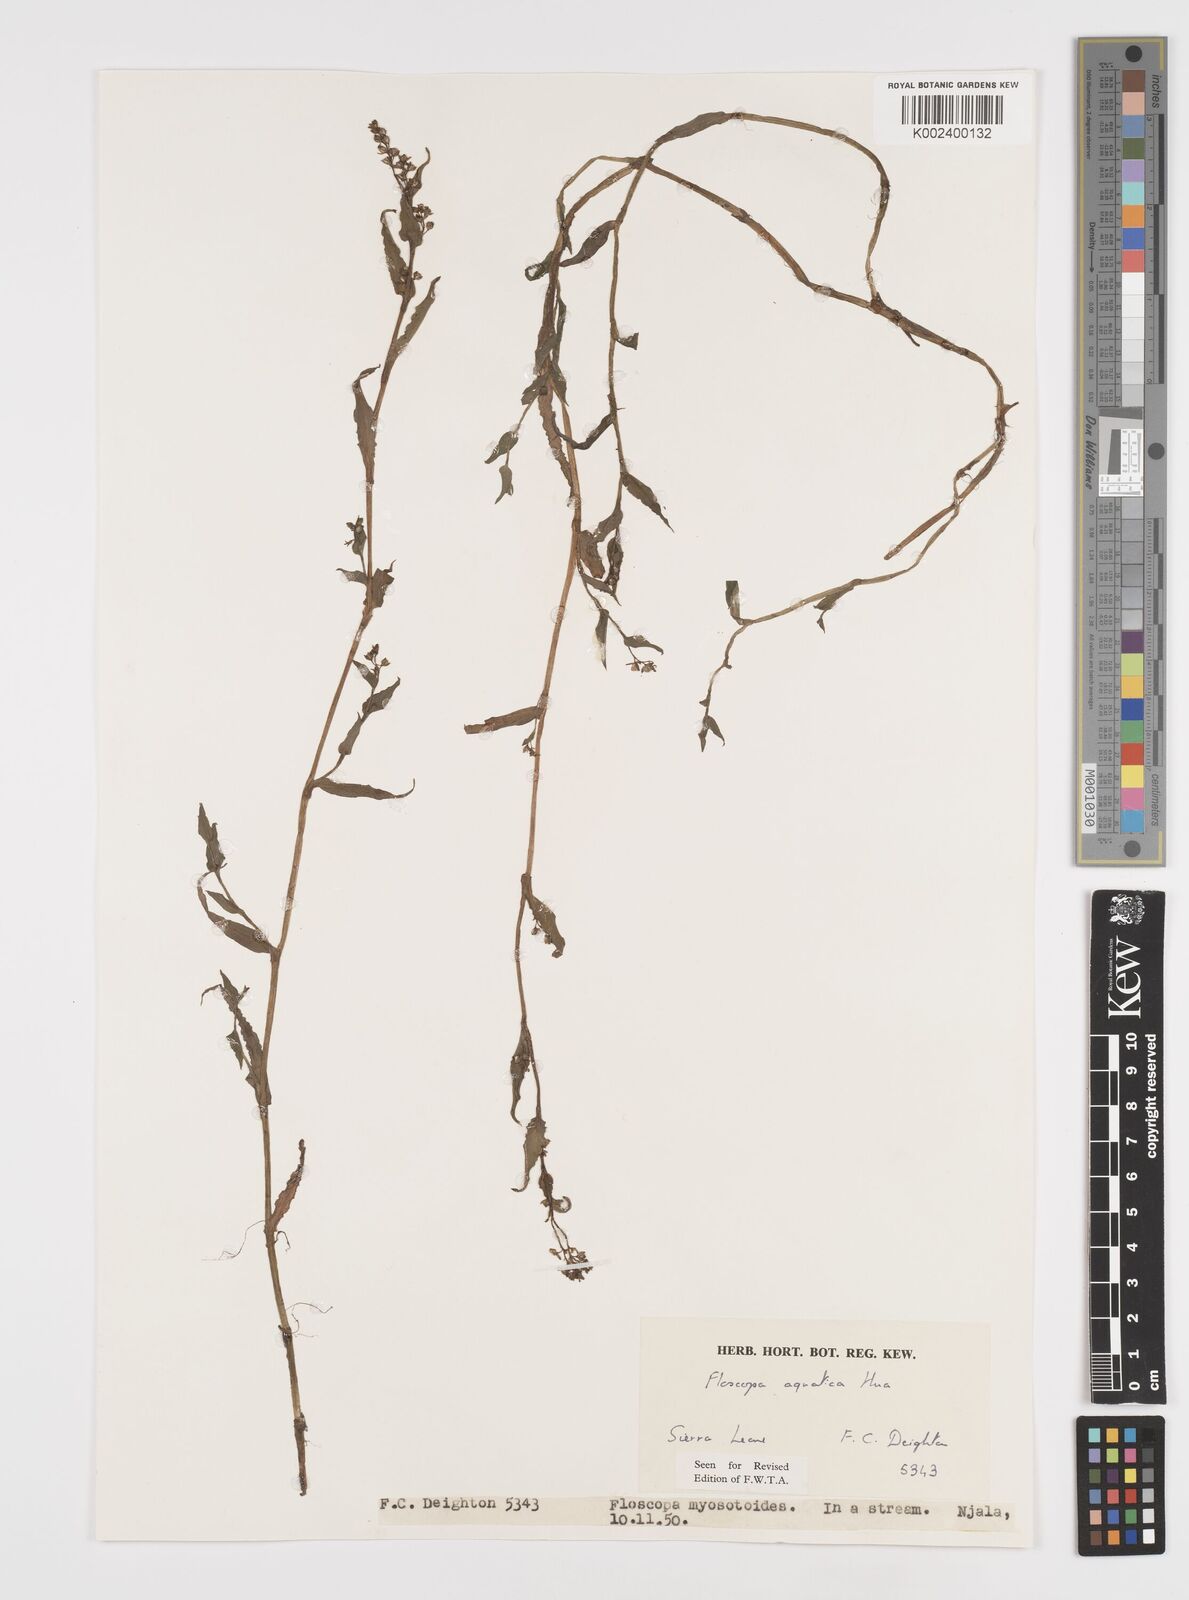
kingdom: Plantae
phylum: Tracheophyta
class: Liliopsida
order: Commelinales
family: Commelinaceae
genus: Floscopa
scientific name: Floscopa aquatica
